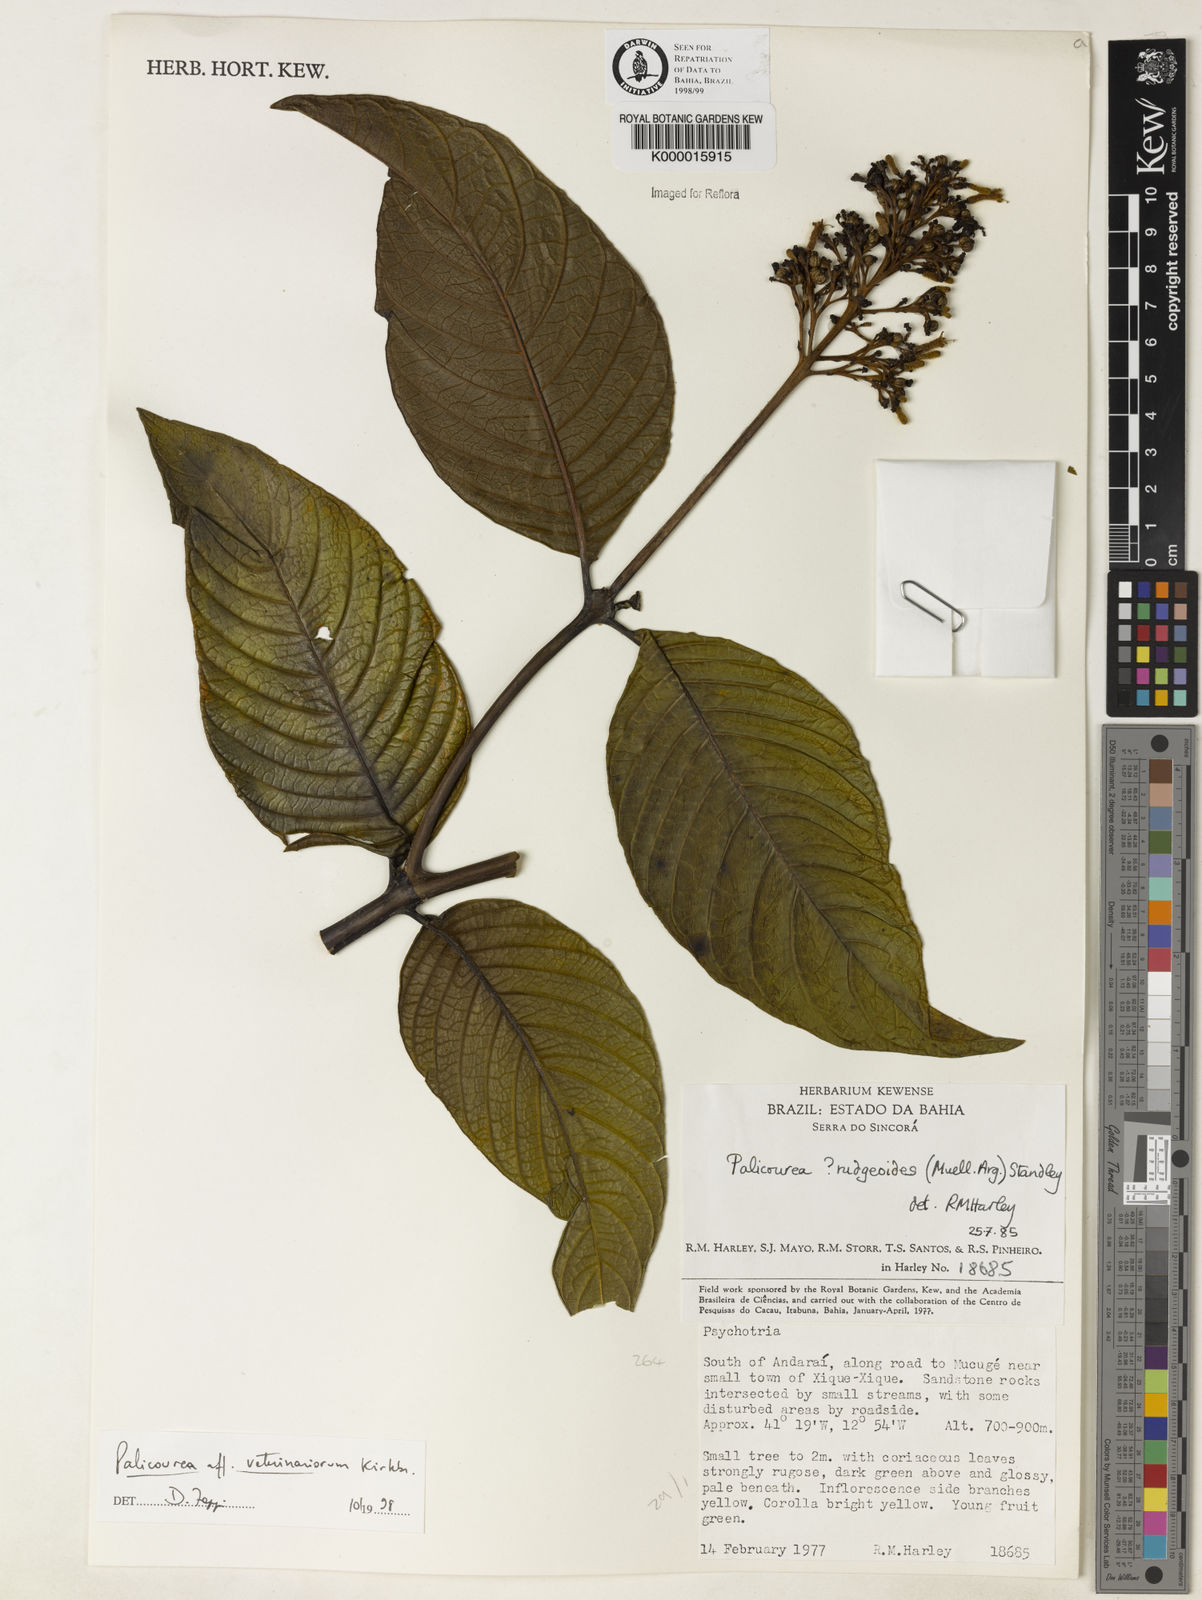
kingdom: Plantae
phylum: Tracheophyta
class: Magnoliopsida
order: Gentianales
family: Rubiaceae
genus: Palicourea
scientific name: Palicourea veterinariorum
